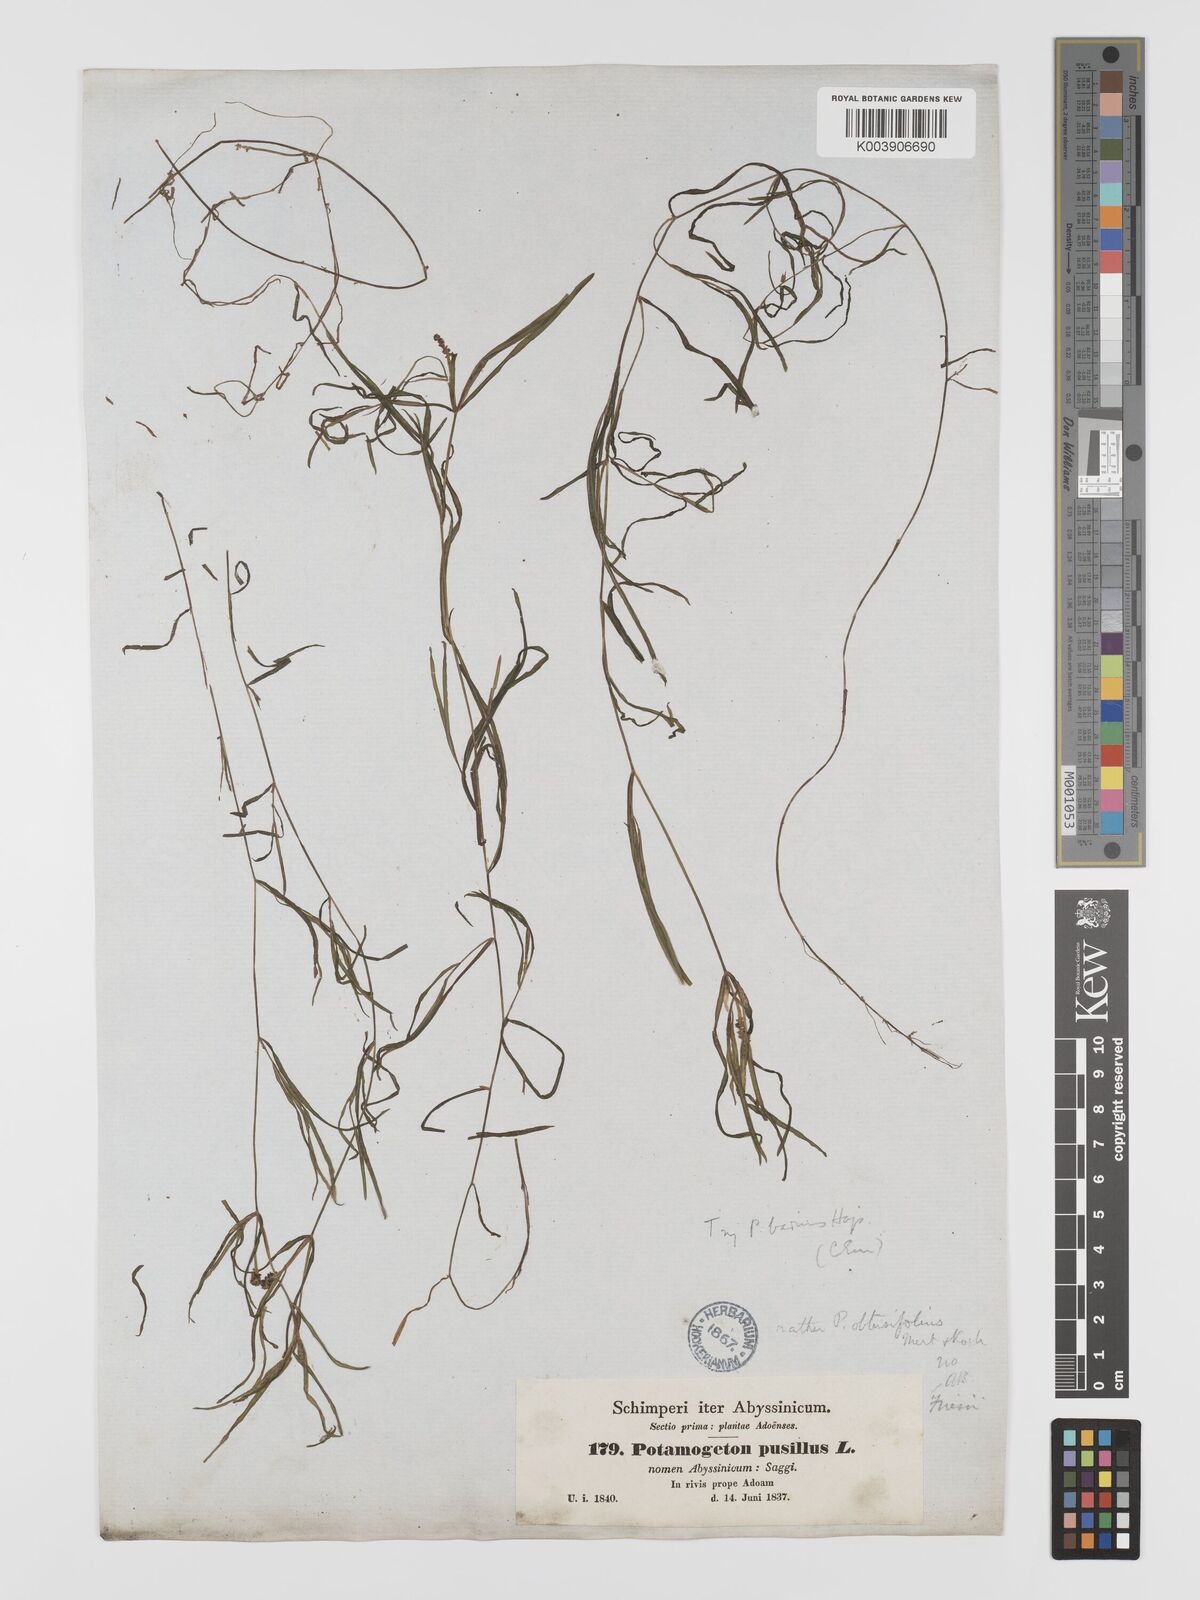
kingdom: Plantae
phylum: Tracheophyta
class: Liliopsida
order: Alismatales
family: Potamogetonaceae
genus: Potamogeton
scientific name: Potamogeton pusillus
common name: Lesser pondweed
